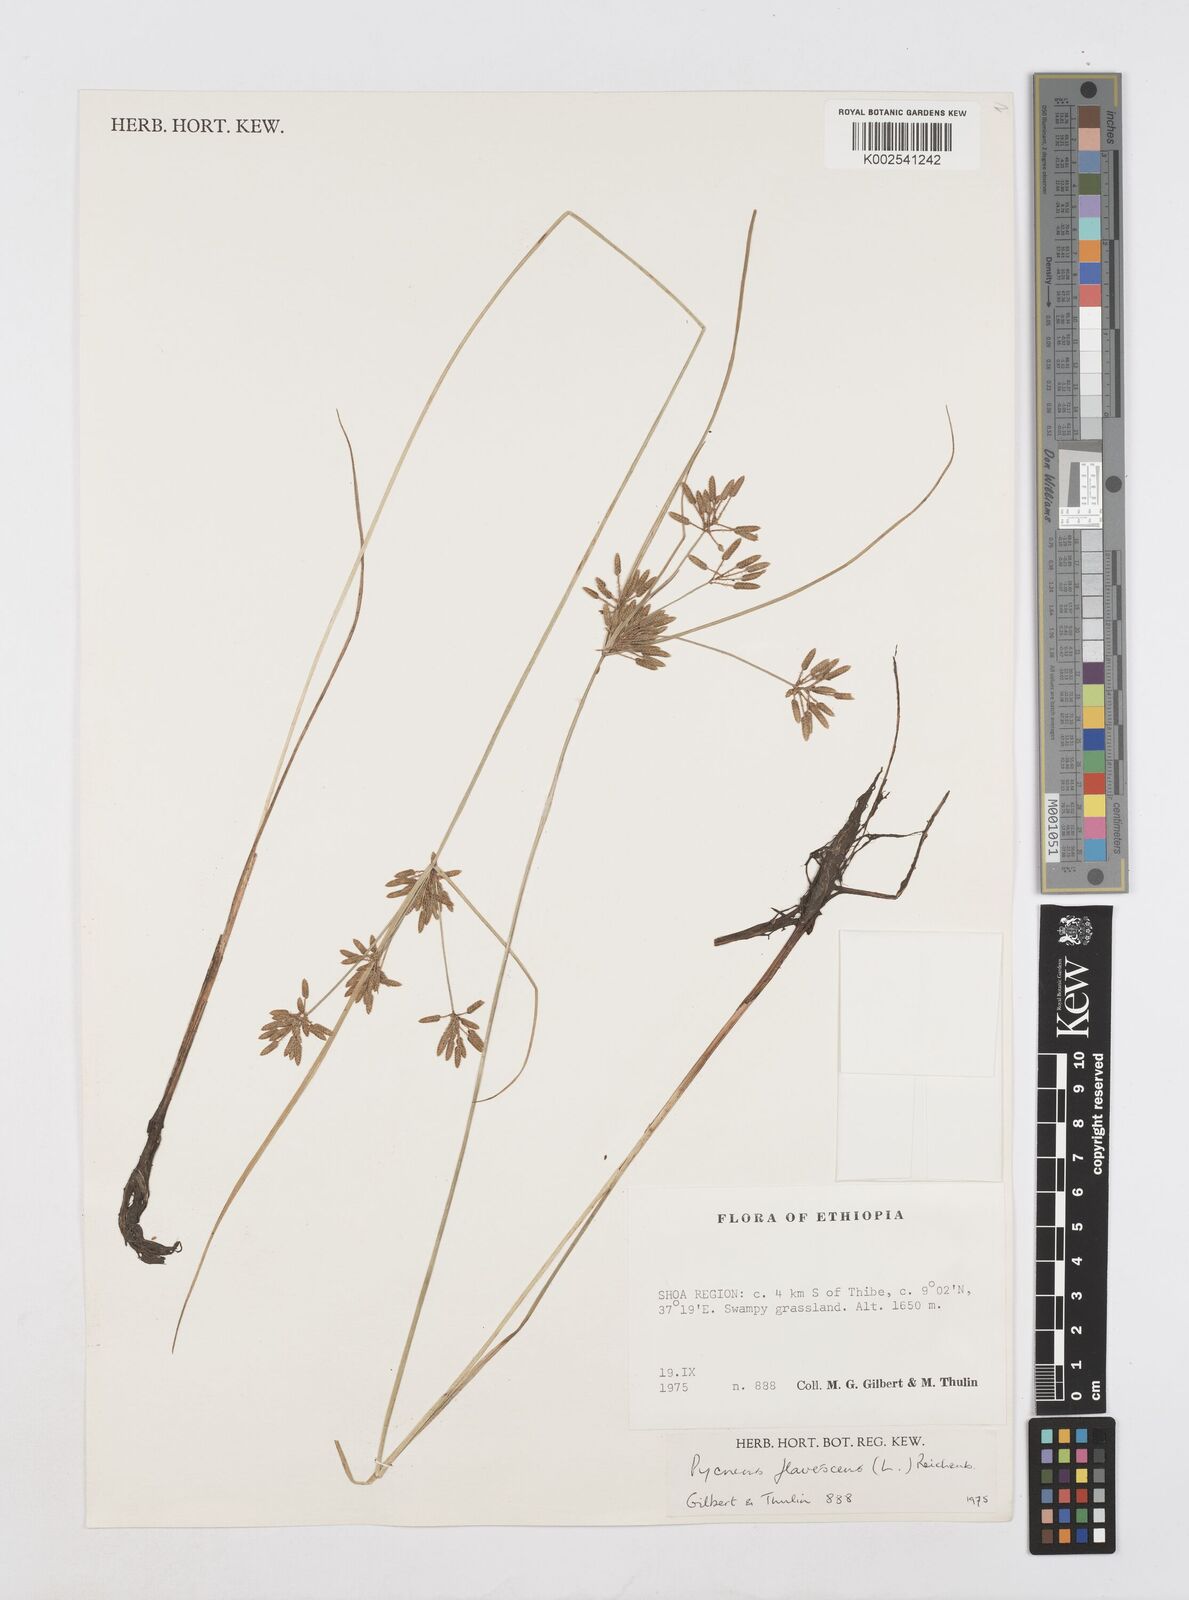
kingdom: Plantae
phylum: Tracheophyta
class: Liliopsida
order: Poales
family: Cyperaceae
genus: Cyperus
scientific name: Cyperus flavescens
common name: Yellow galingale
